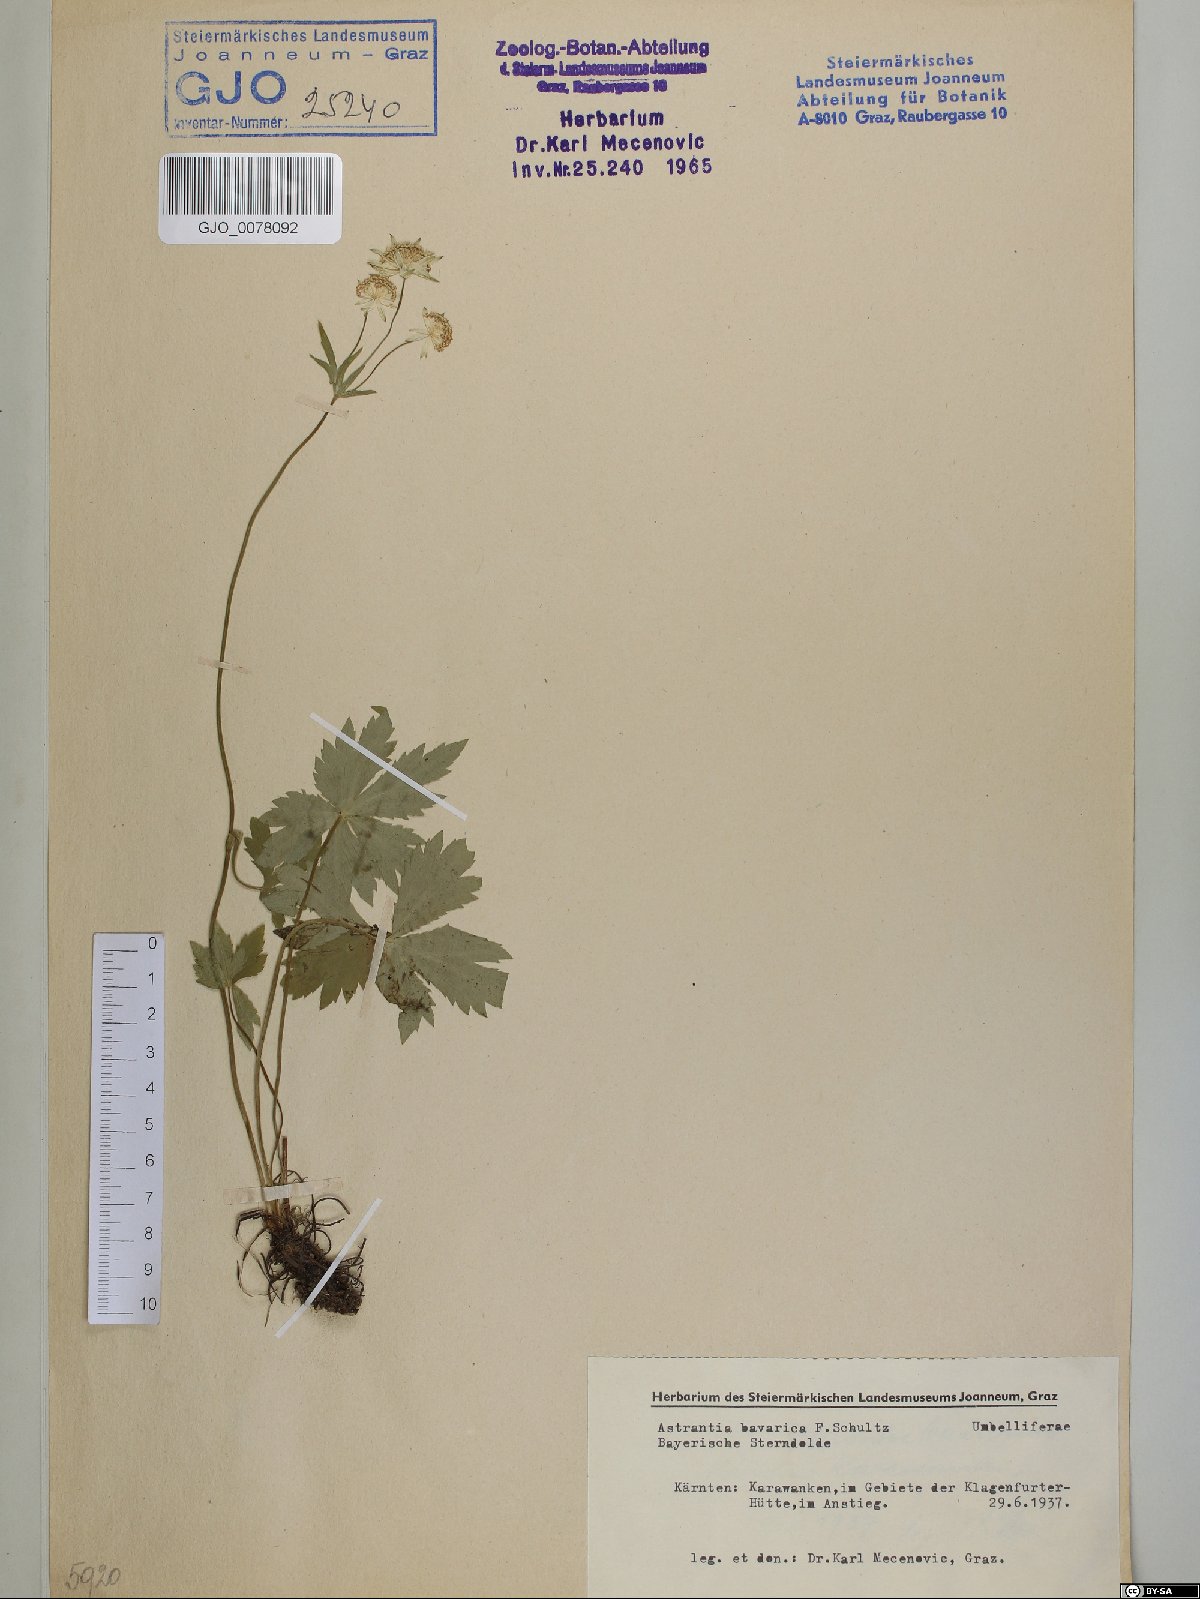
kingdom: Plantae
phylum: Tracheophyta
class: Magnoliopsida
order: Apiales
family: Apiaceae
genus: Astrantia
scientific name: Astrantia bavarica
